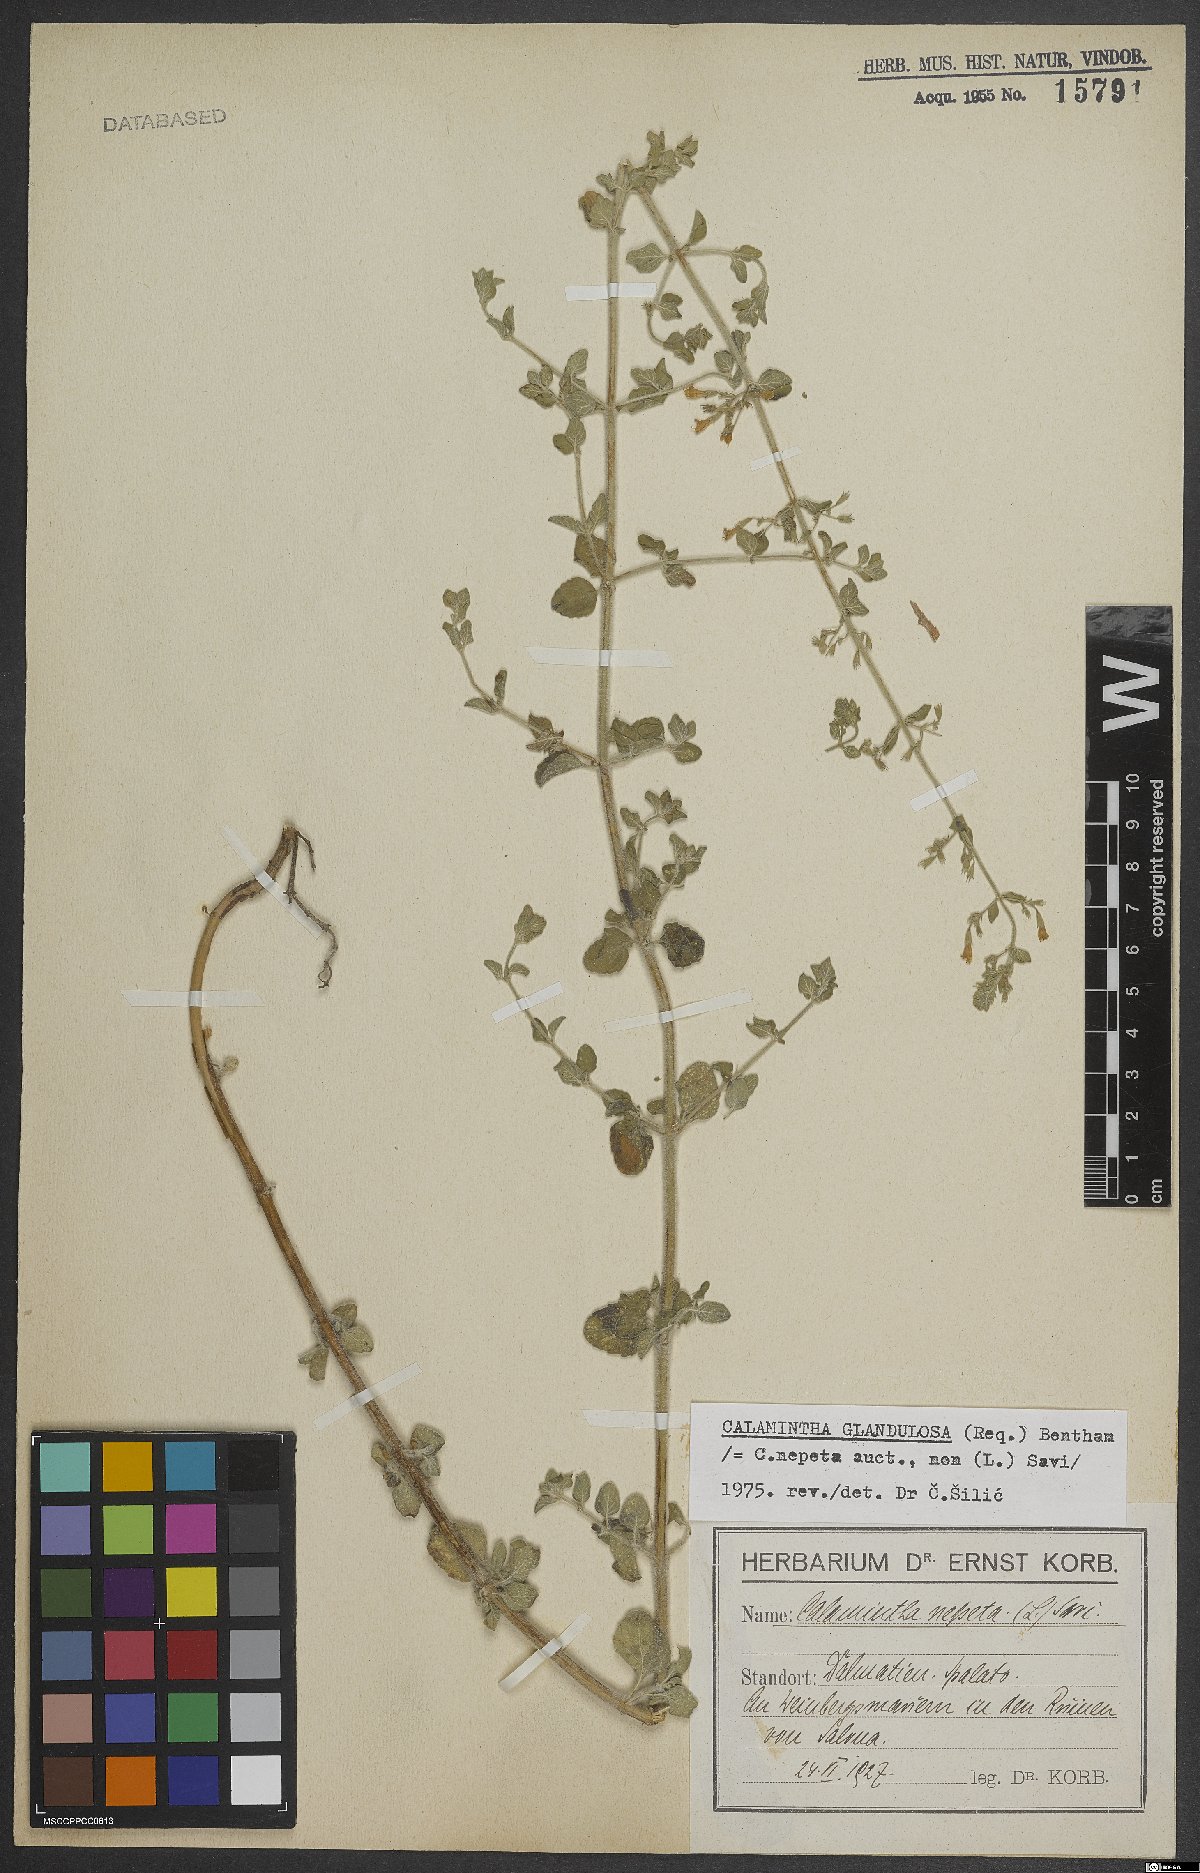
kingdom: Plantae
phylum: Tracheophyta
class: Magnoliopsida
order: Lamiales
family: Lamiaceae
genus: Clinopodium
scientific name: Clinopodium nepeta
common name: Lesser calamint
